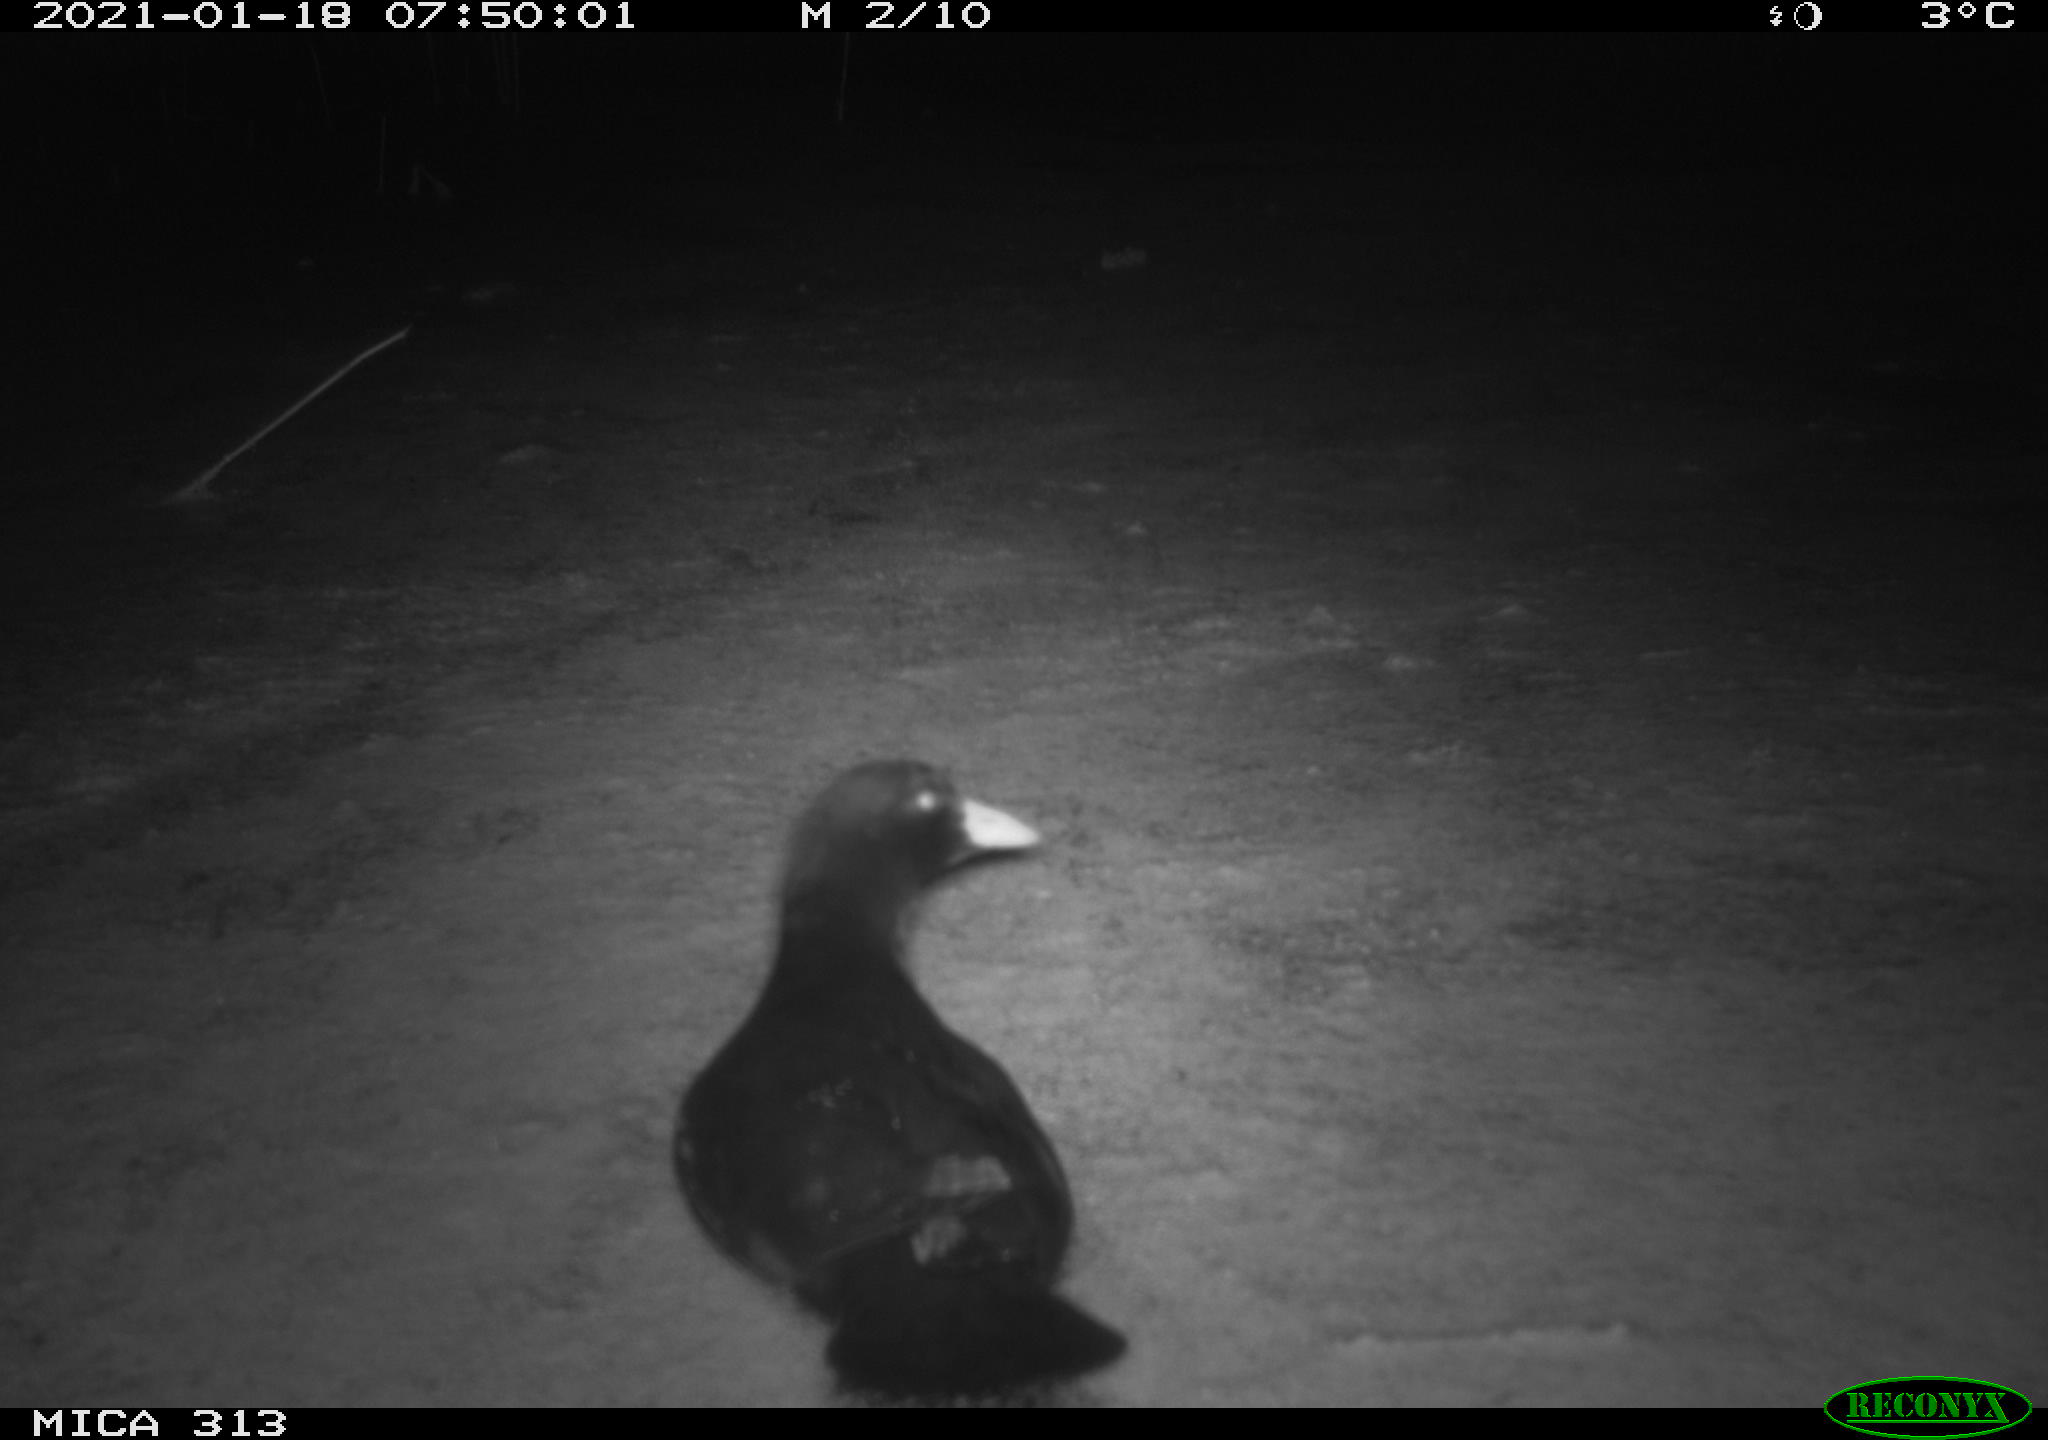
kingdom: Animalia
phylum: Chordata
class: Aves
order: Gruiformes
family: Rallidae
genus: Gallinula
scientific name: Gallinula chloropus
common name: Common moorhen
